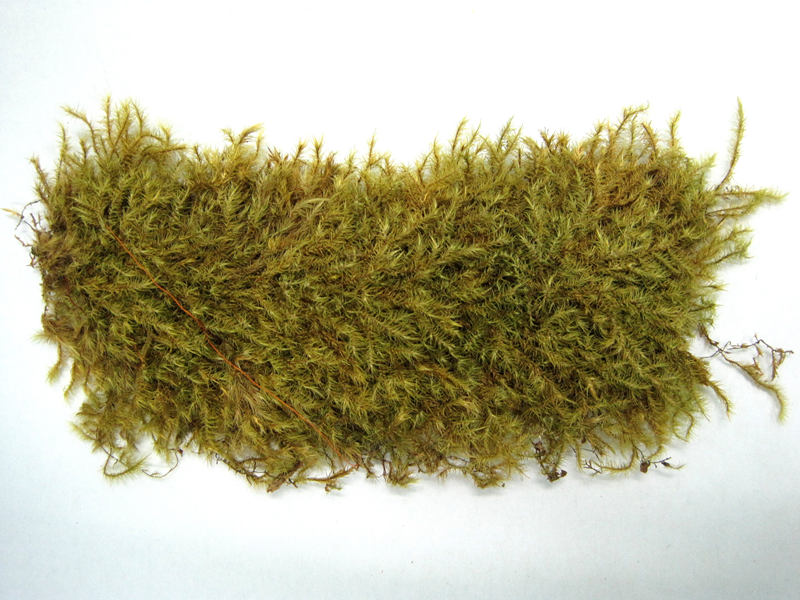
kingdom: Plantae
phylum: Bryophyta
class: Bryopsida
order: Hypnales
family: Sematophyllaceae
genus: Acroporium
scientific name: Acroporium strepsiphyllum
